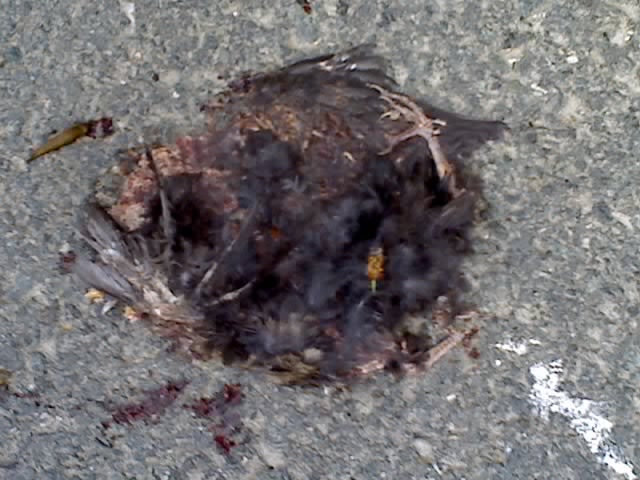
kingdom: Animalia
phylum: Chordata
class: Aves
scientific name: Aves
